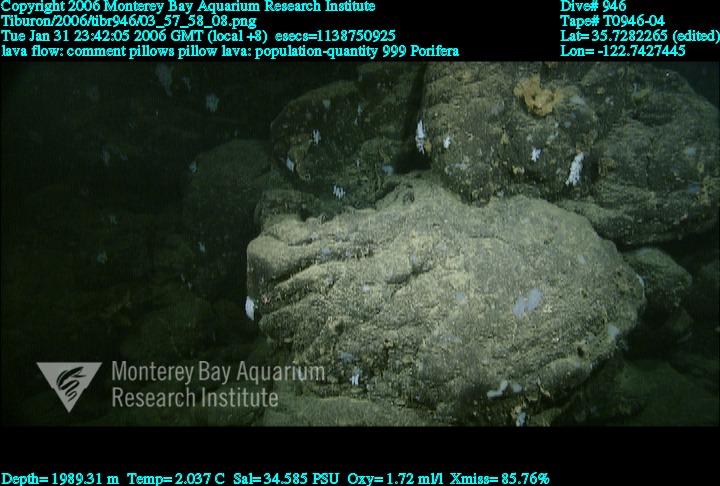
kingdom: Animalia
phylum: Porifera
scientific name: Porifera
